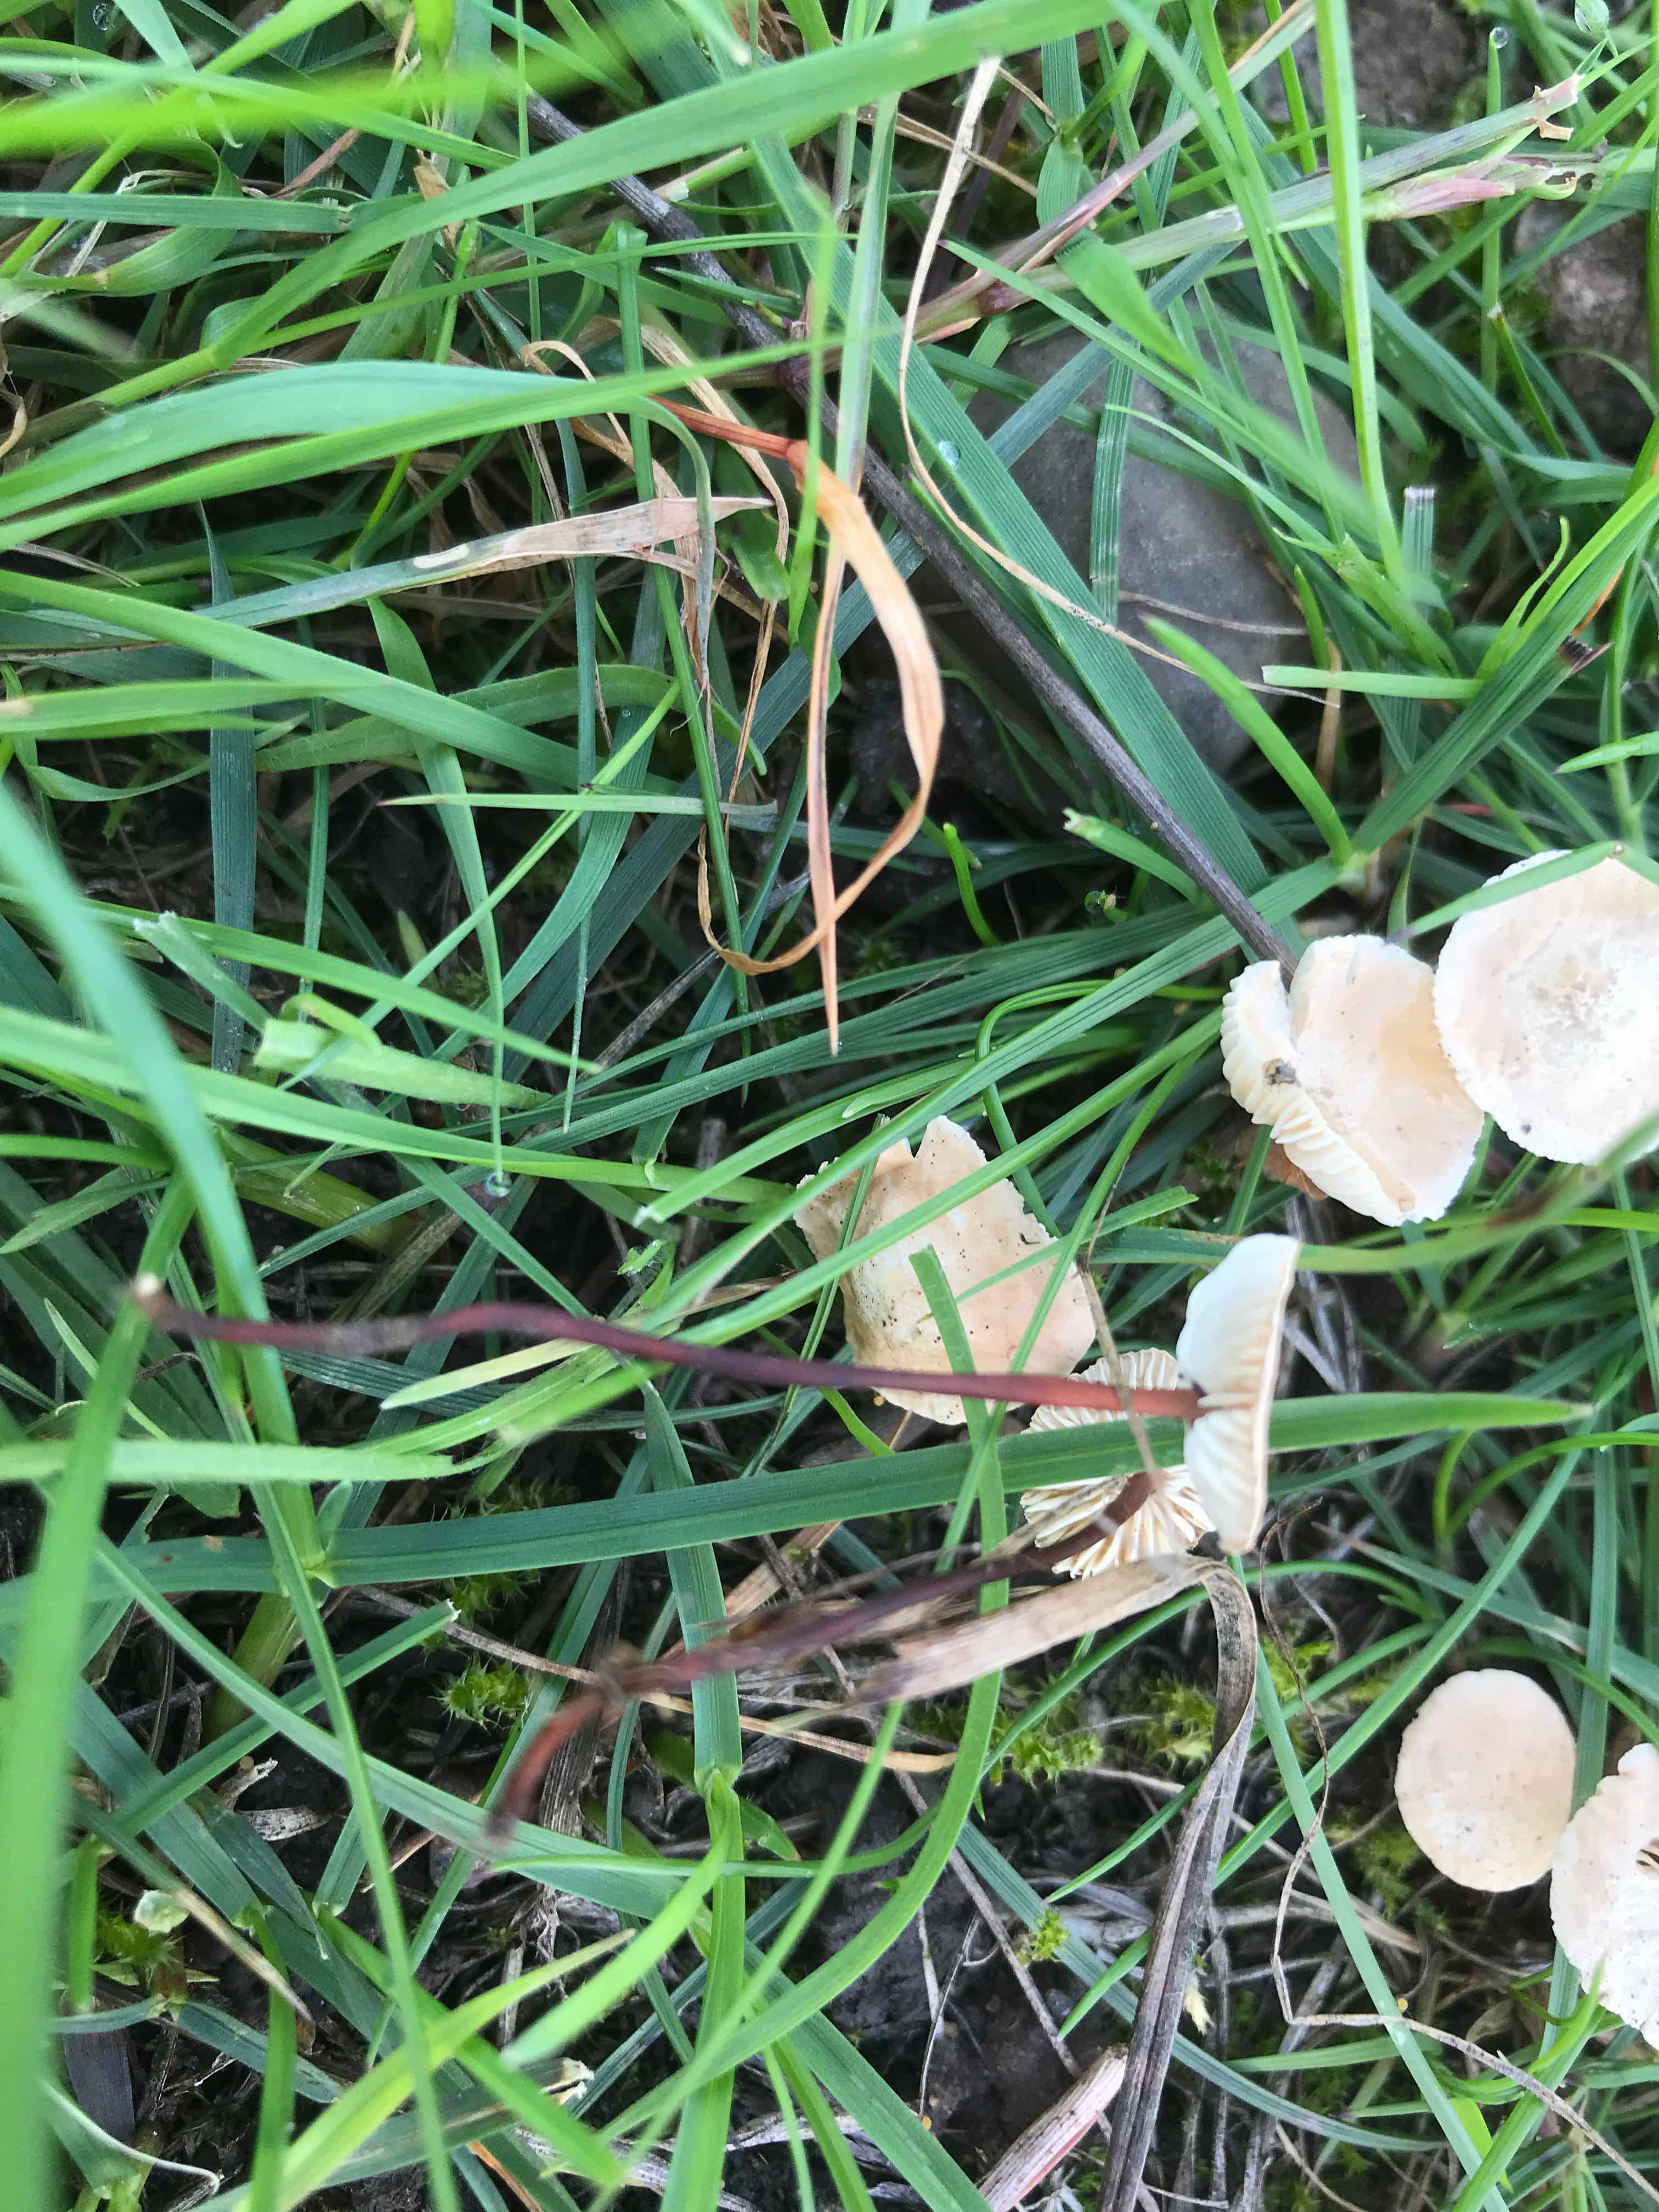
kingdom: Fungi
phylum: Basidiomycota
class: Agaricomycetes
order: Agaricales
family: Omphalotaceae
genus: Mycetinis
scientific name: Mycetinis scorodonius
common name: lille løghat
